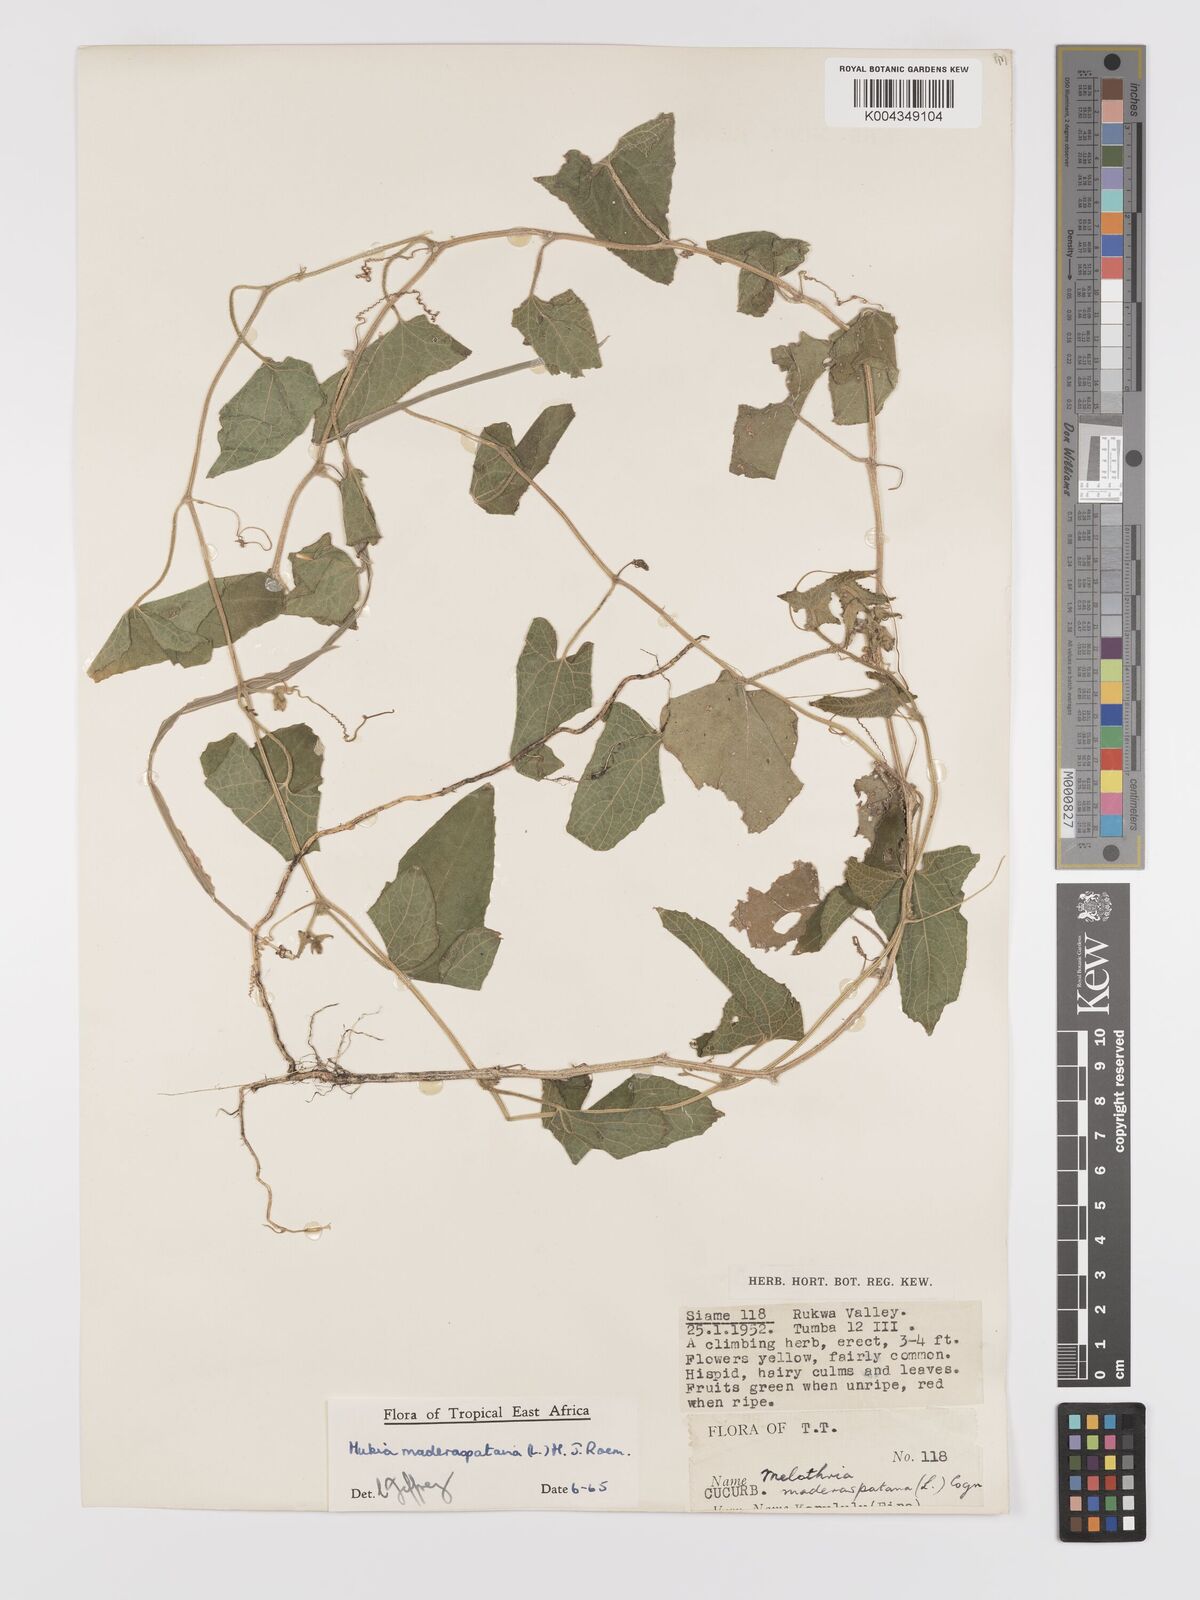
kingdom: Plantae
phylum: Tracheophyta
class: Magnoliopsida
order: Cucurbitales
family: Cucurbitaceae
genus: Cucumis
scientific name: Cucumis maderaspatanus
